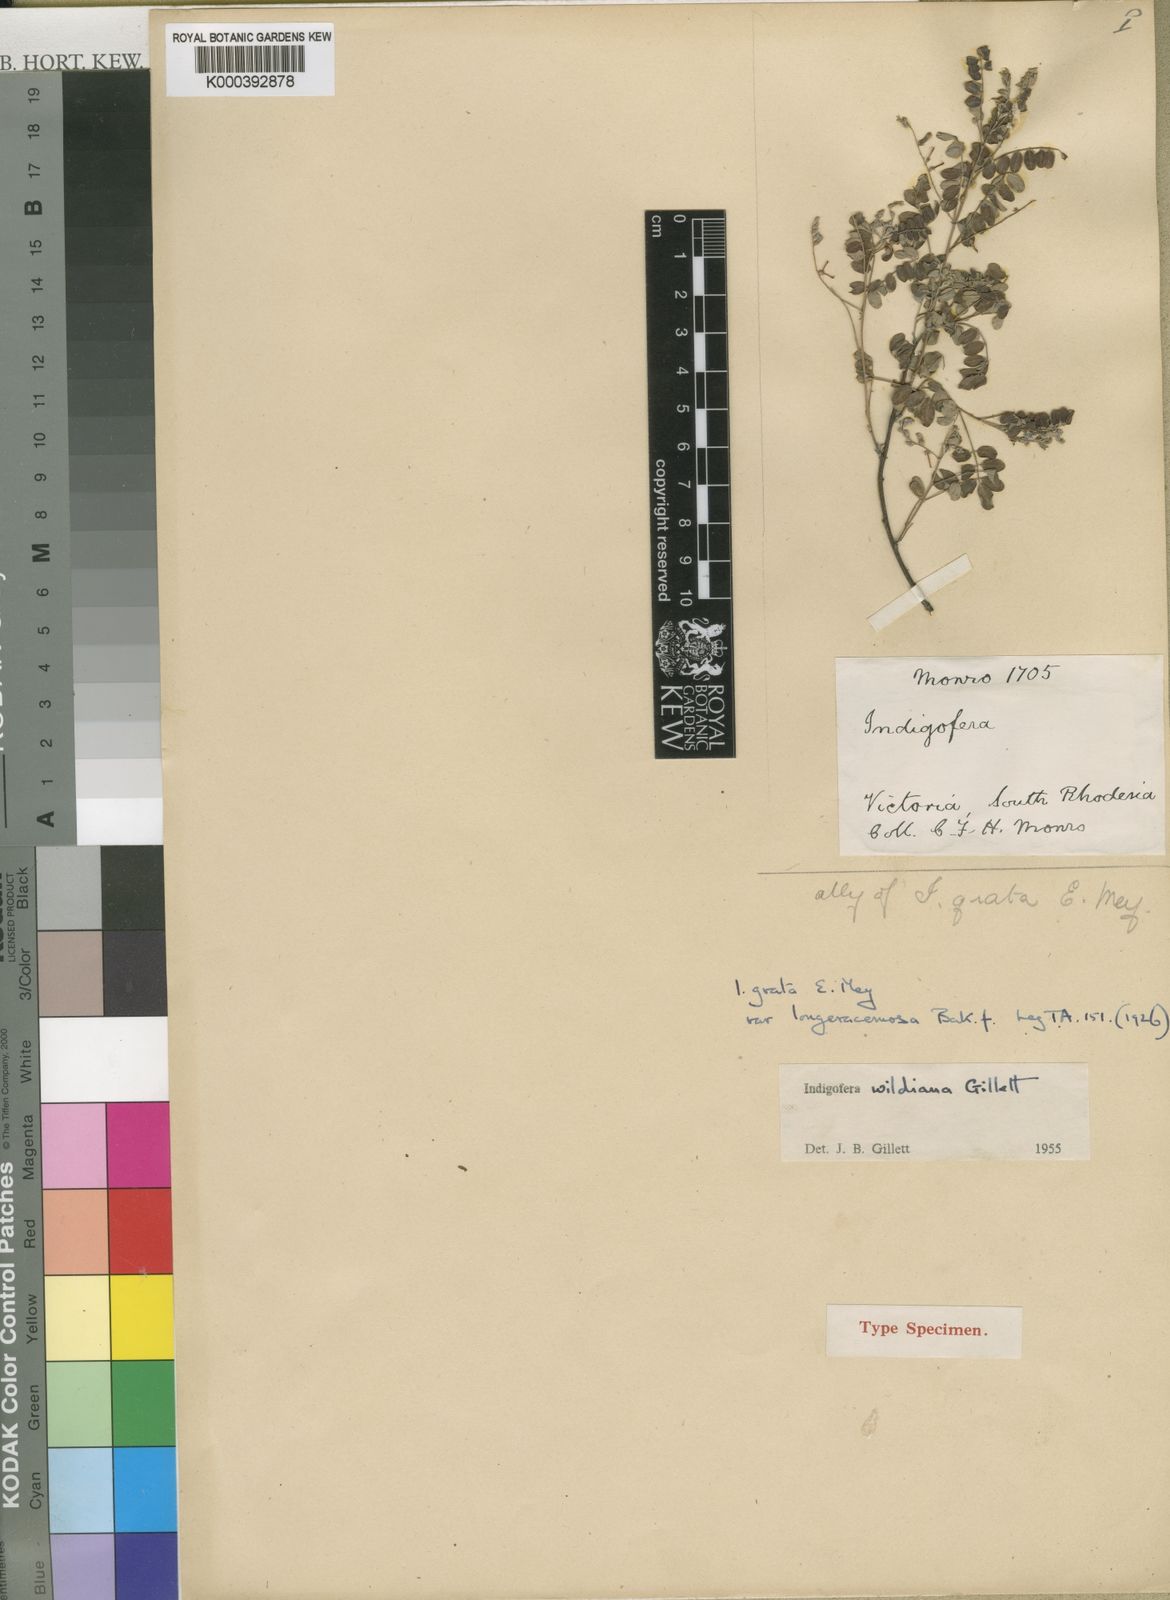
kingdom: Plantae
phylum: Tracheophyta
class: Magnoliopsida
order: Fabales
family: Fabaceae
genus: Indigofera
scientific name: Indigofera wildiana
